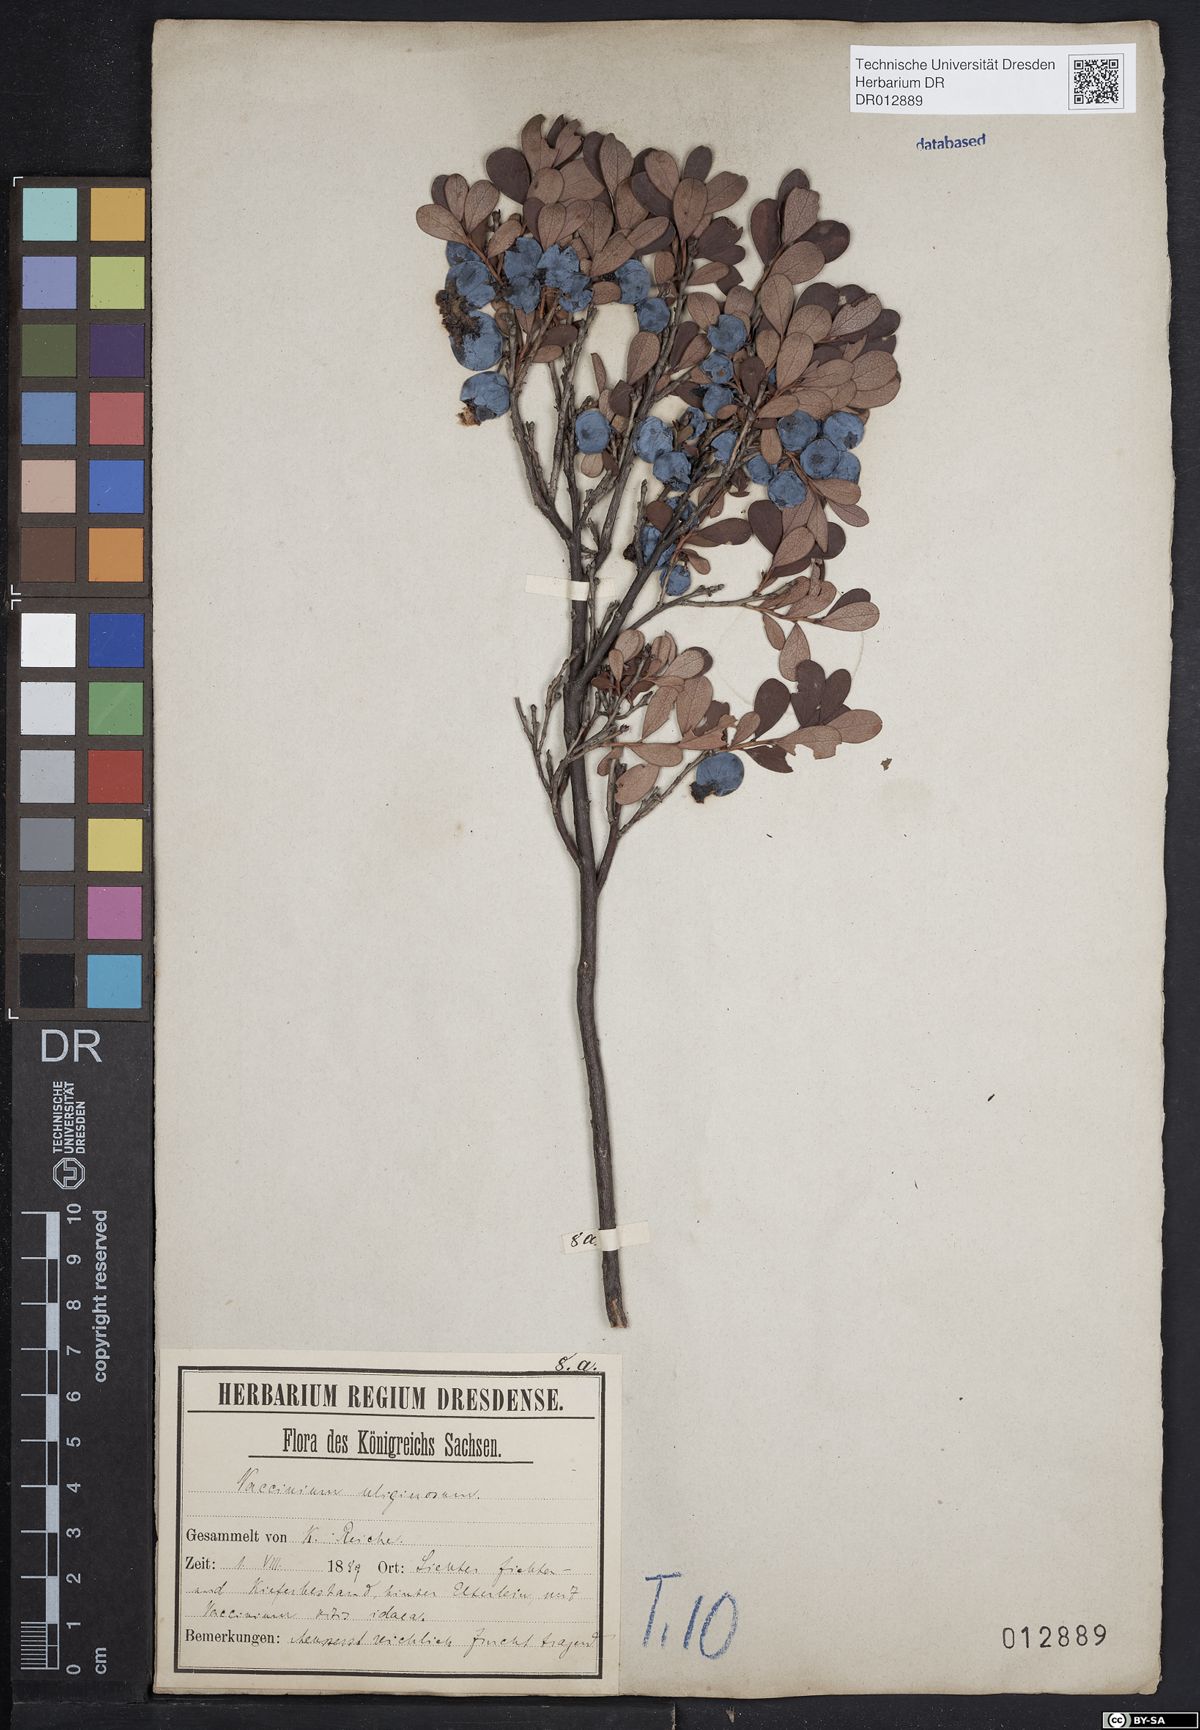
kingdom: Plantae
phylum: Tracheophyta
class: Magnoliopsida
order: Ericales
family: Ericaceae
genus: Vaccinium
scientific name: Vaccinium uliginosum
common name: Bog bilberry
